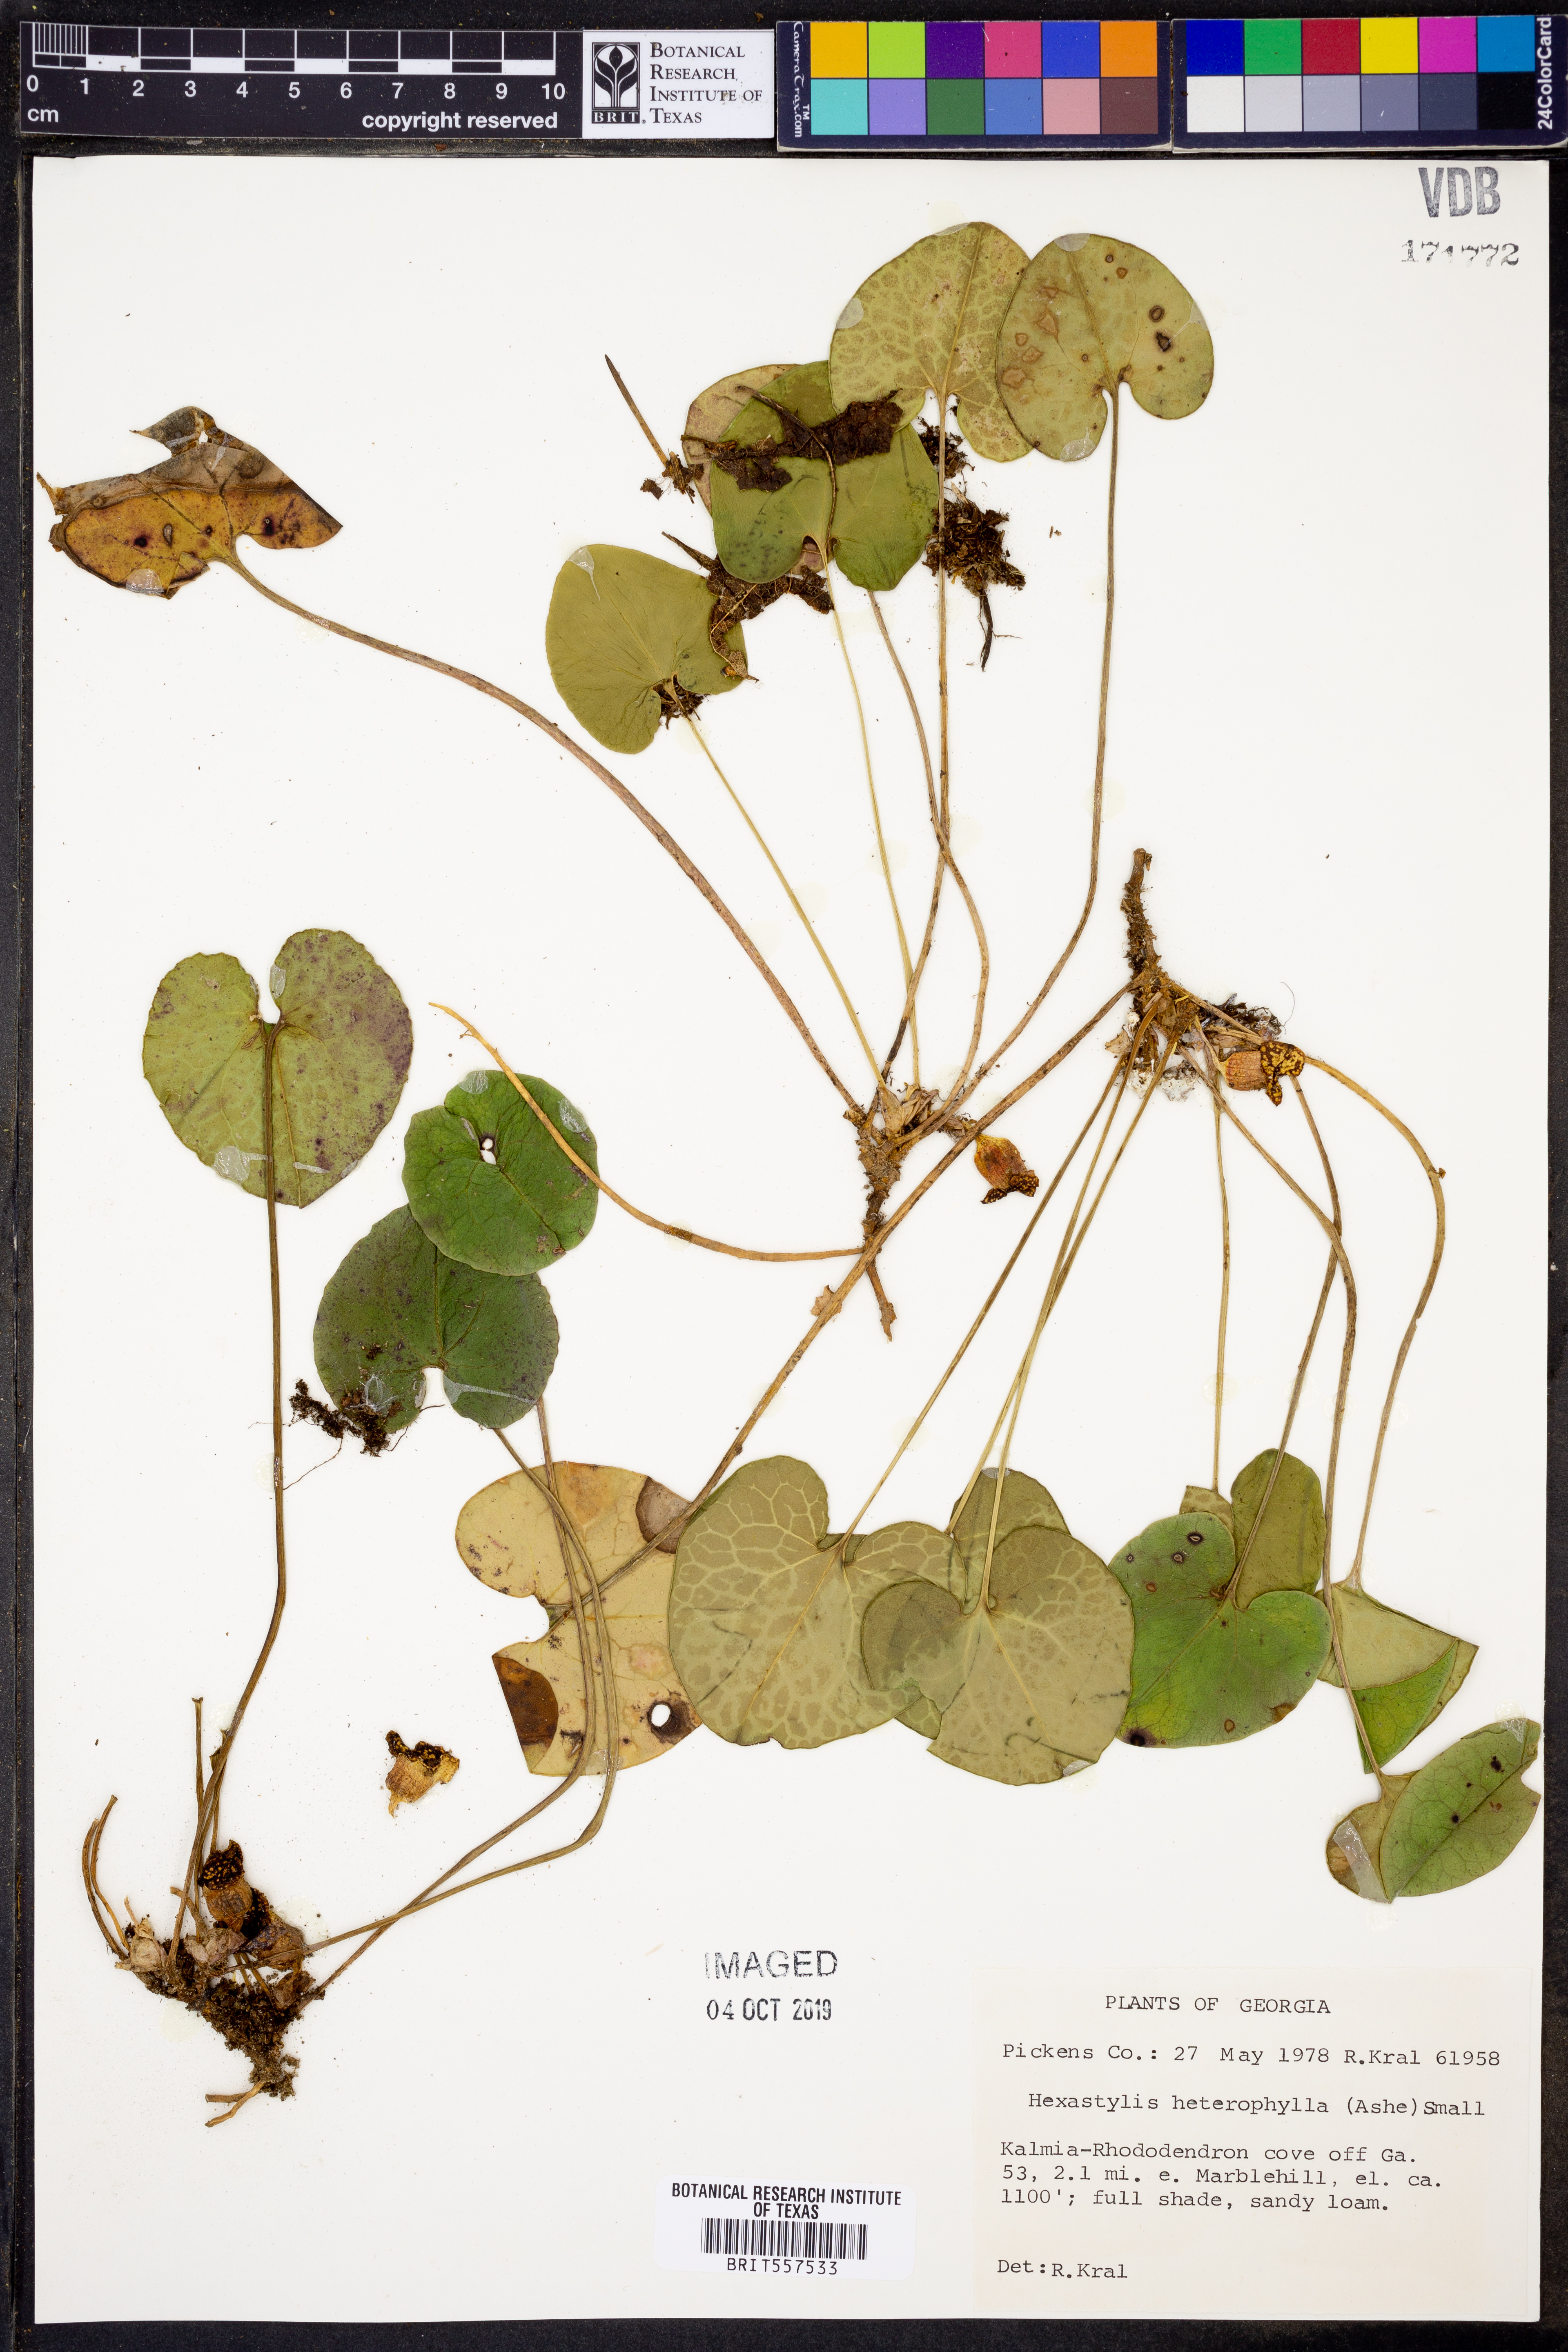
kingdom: Plantae
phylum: Tracheophyta
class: Magnoliopsida
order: Piperales
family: Aristolochiaceae
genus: Hexastylis
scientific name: Hexastylis heterophylla
